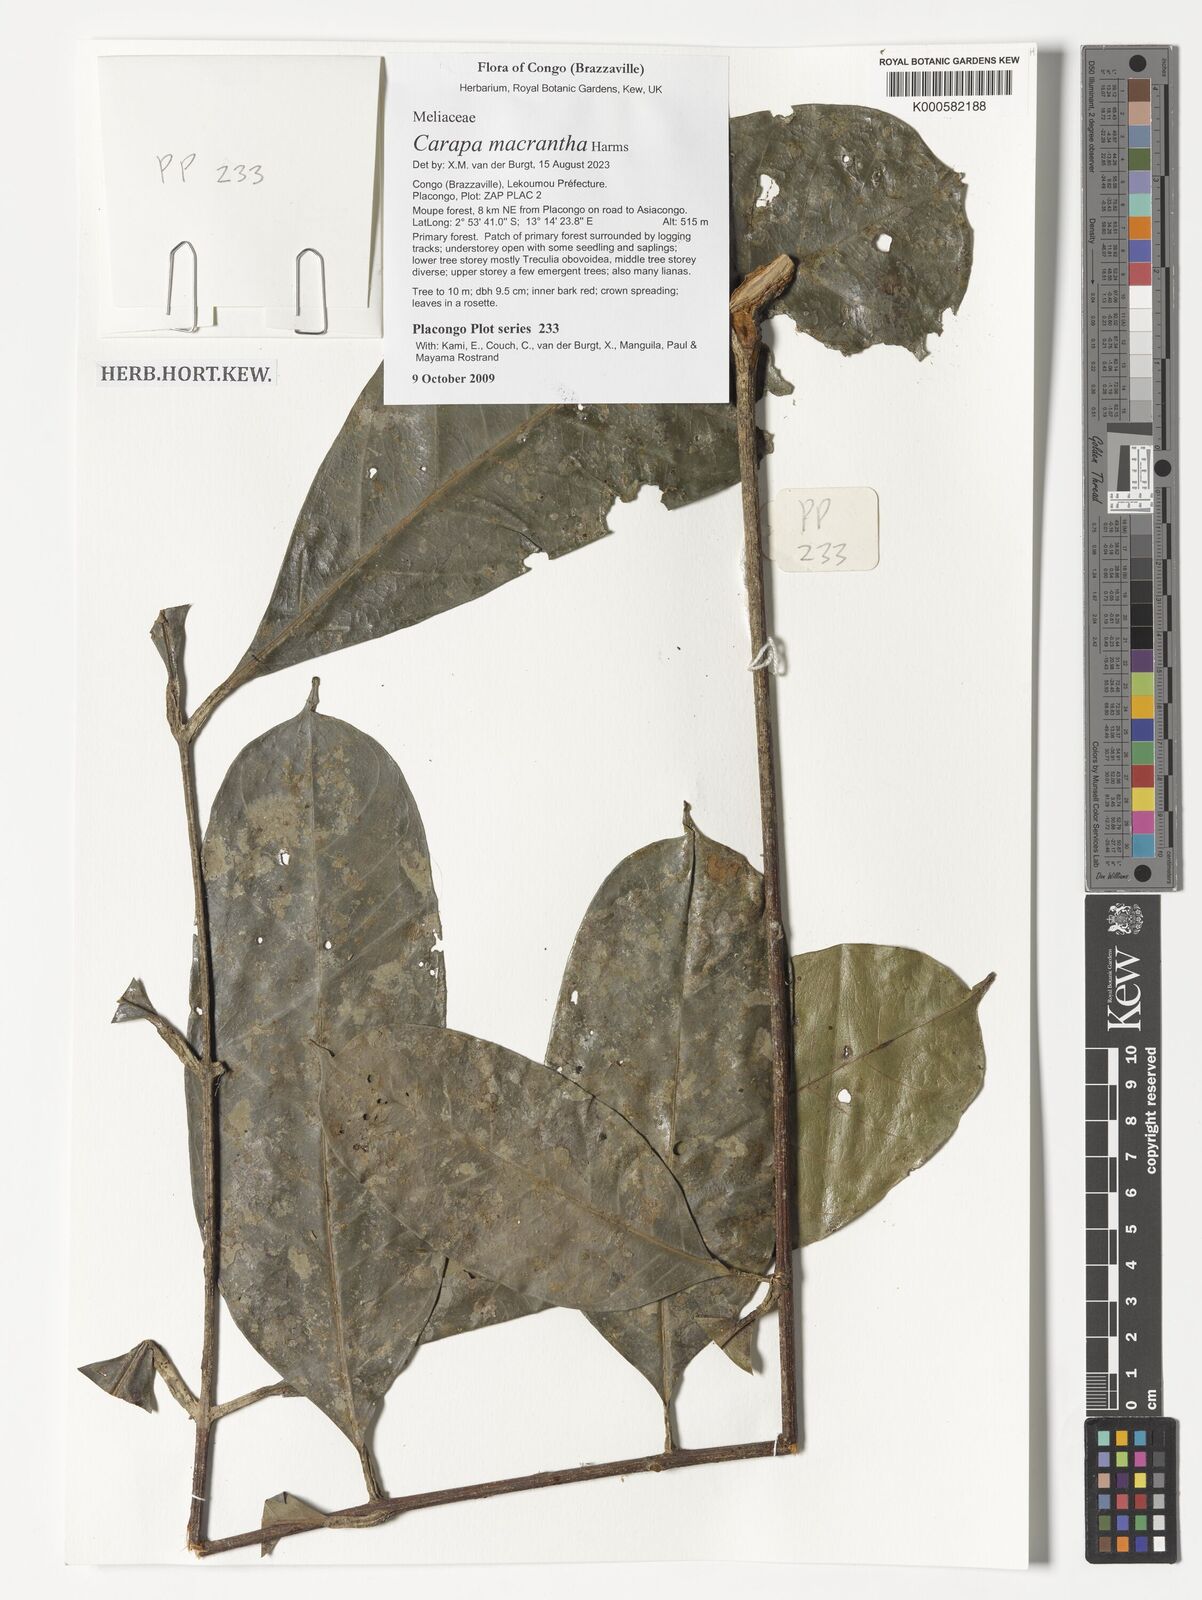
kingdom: Plantae
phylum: Tracheophyta
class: Magnoliopsida
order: Sapindales
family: Meliaceae
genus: Carapa
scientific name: Carapa macrantha
